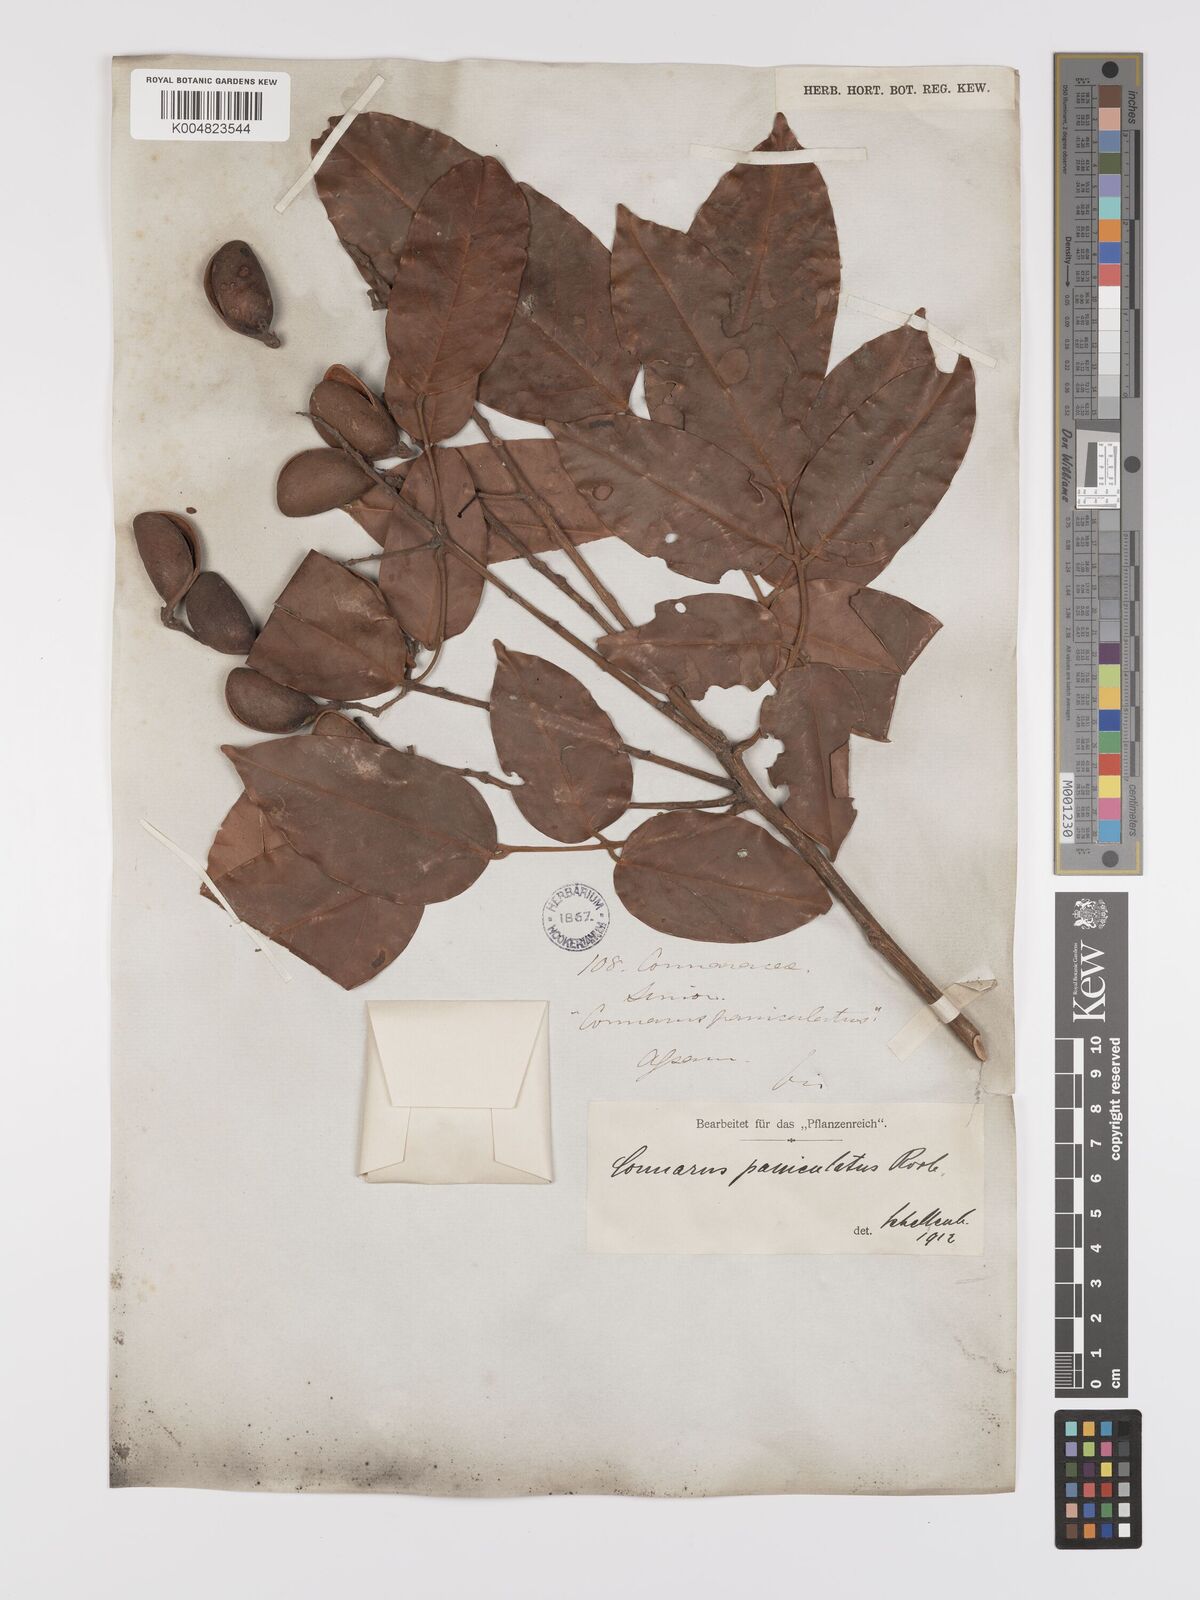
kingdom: Plantae
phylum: Tracheophyta
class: Magnoliopsida
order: Oxalidales
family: Connaraceae
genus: Connarus
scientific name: Connarus paniculatus
